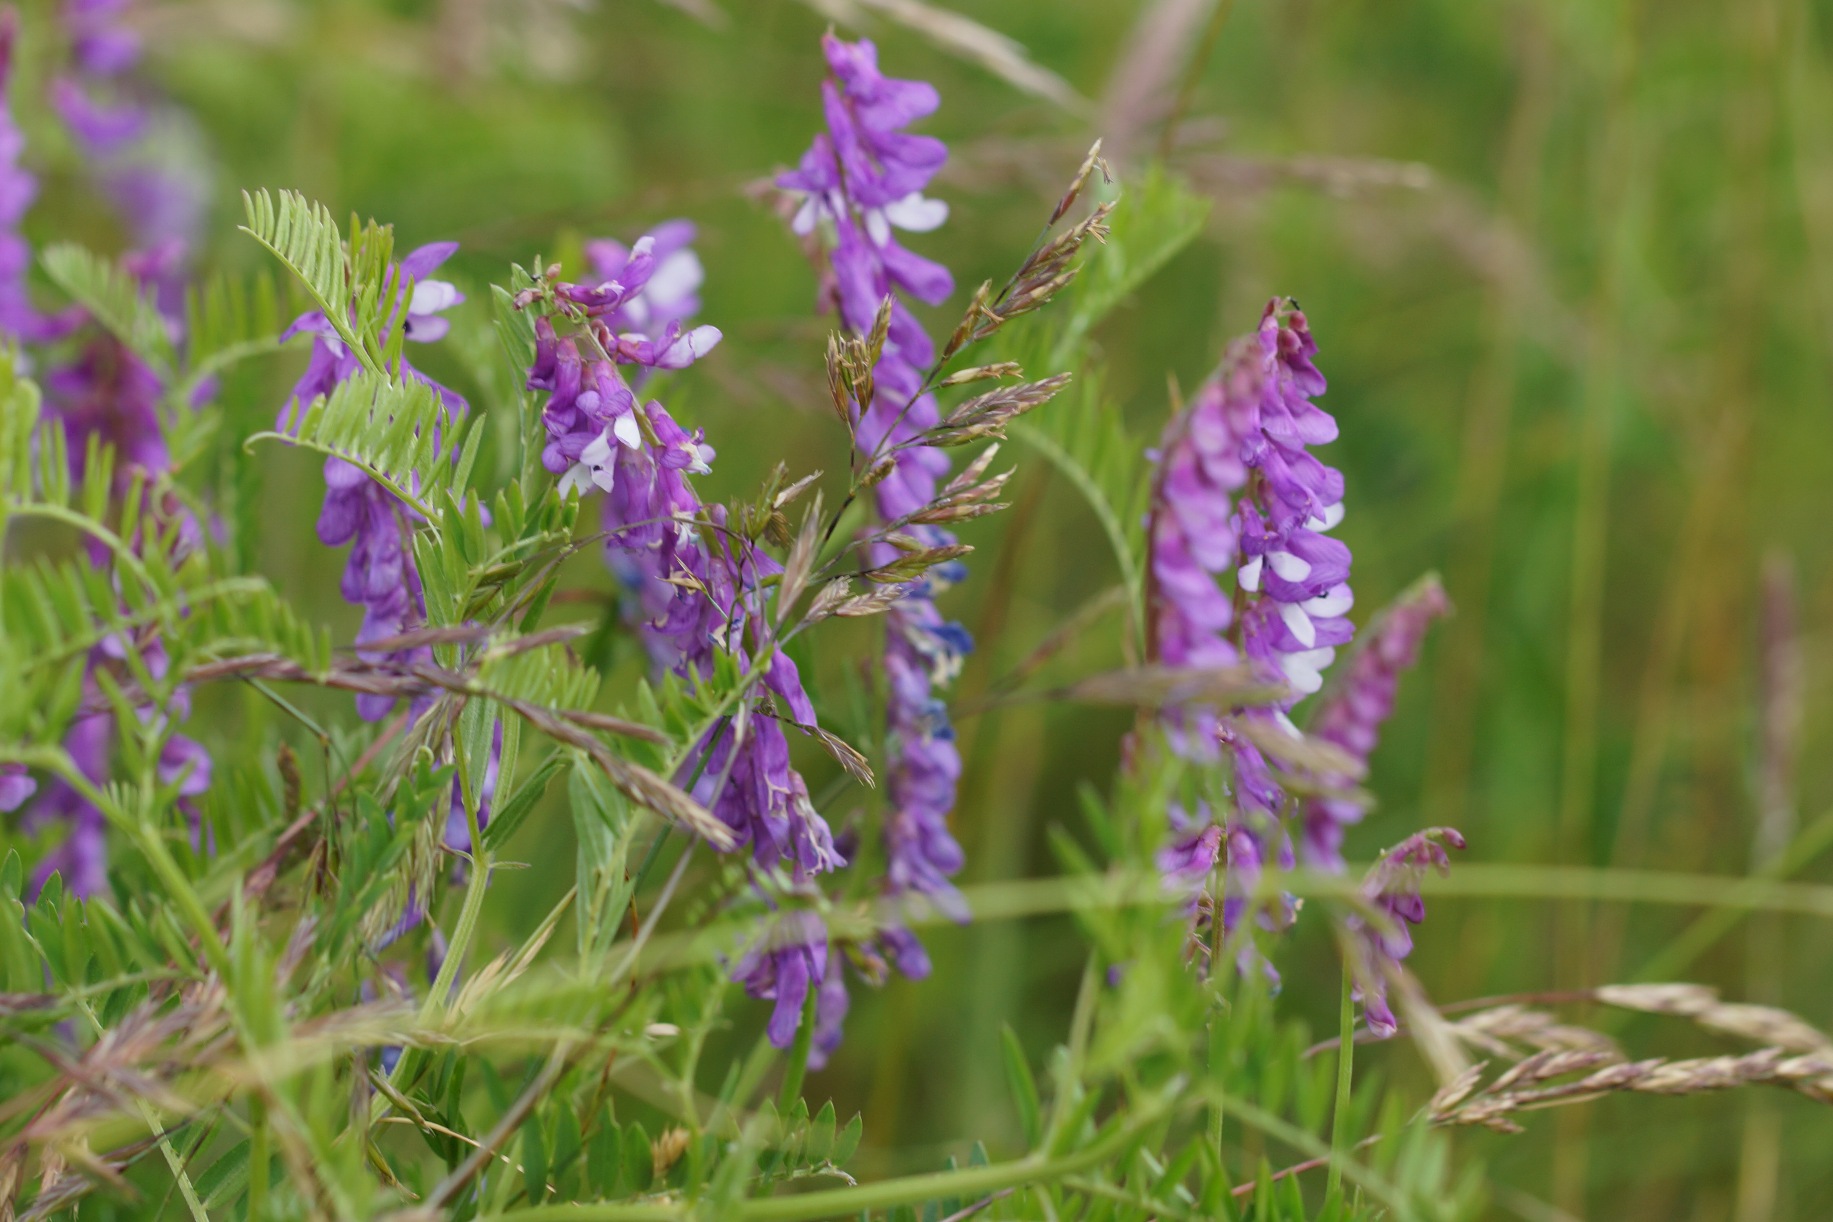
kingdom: Plantae
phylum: Tracheophyta
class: Magnoliopsida
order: Fabales
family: Fabaceae
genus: Vicia
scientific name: Vicia cracca
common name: Muse-vikke
